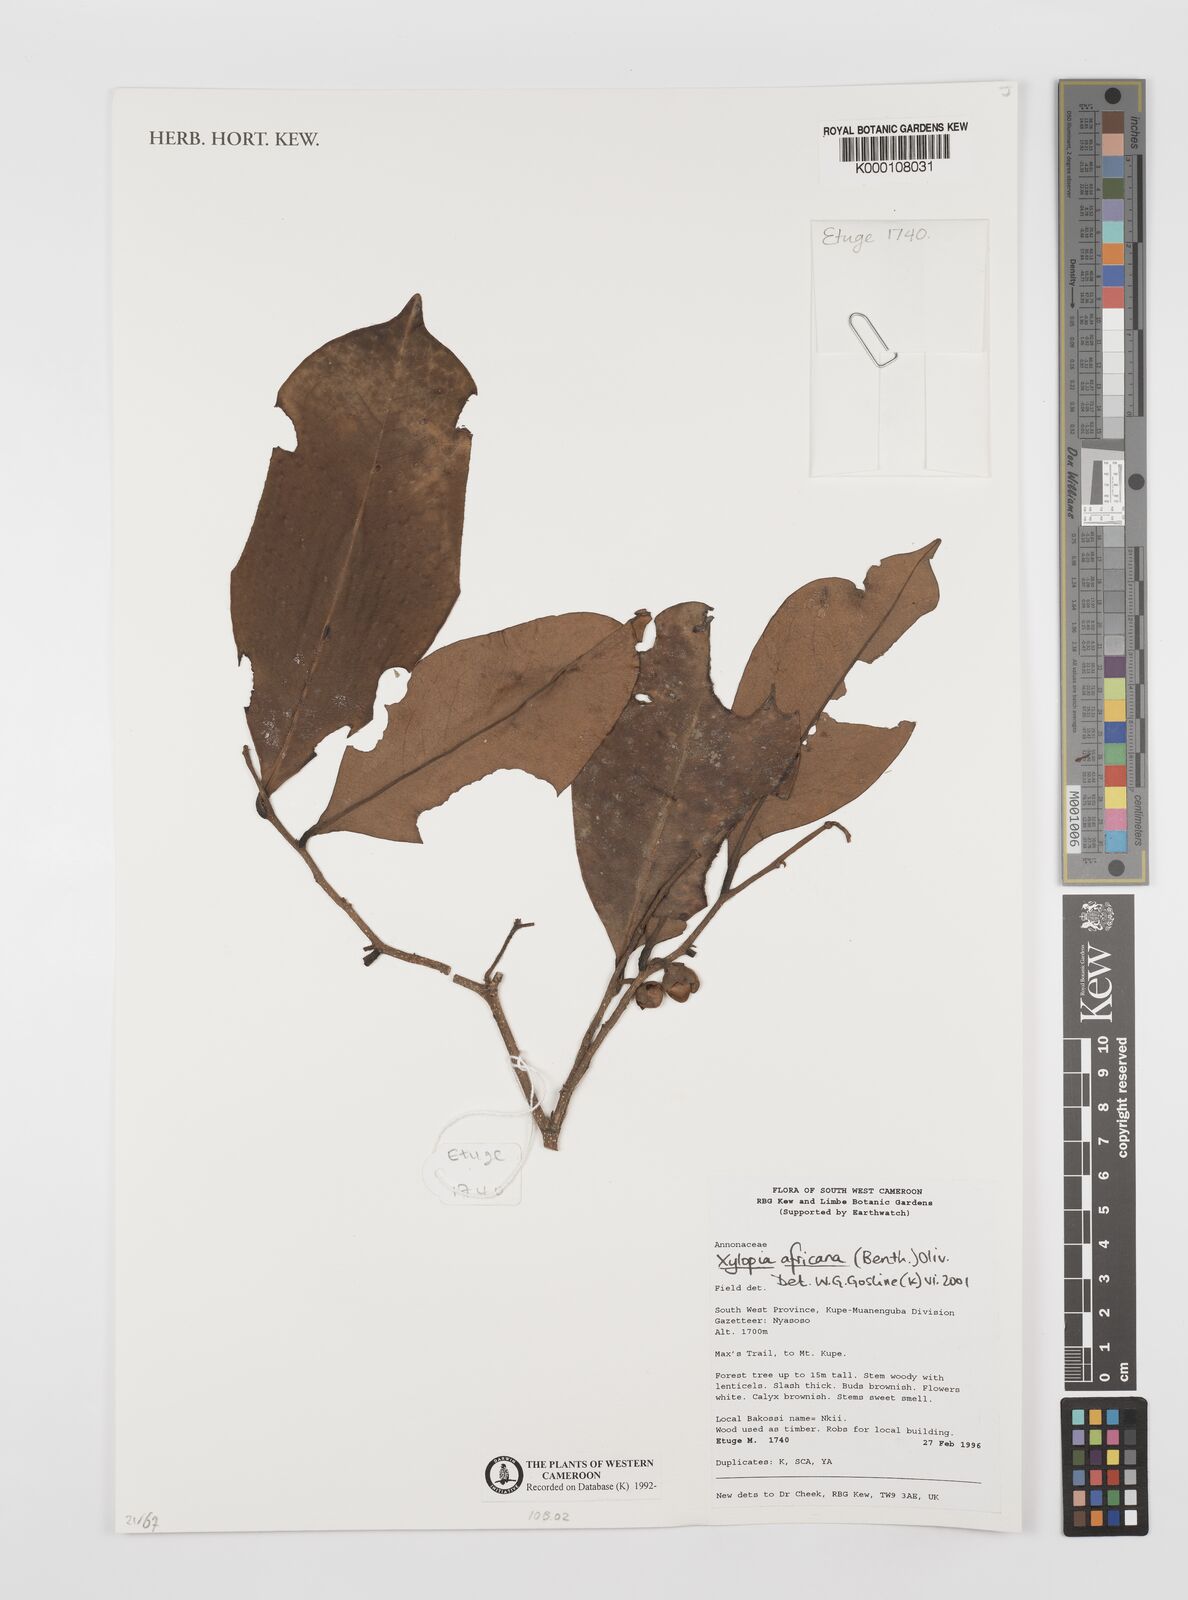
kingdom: Plantae
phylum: Tracheophyta
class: Magnoliopsida
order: Magnoliales
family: Annonaceae
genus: Xylopia
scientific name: Xylopia africana
